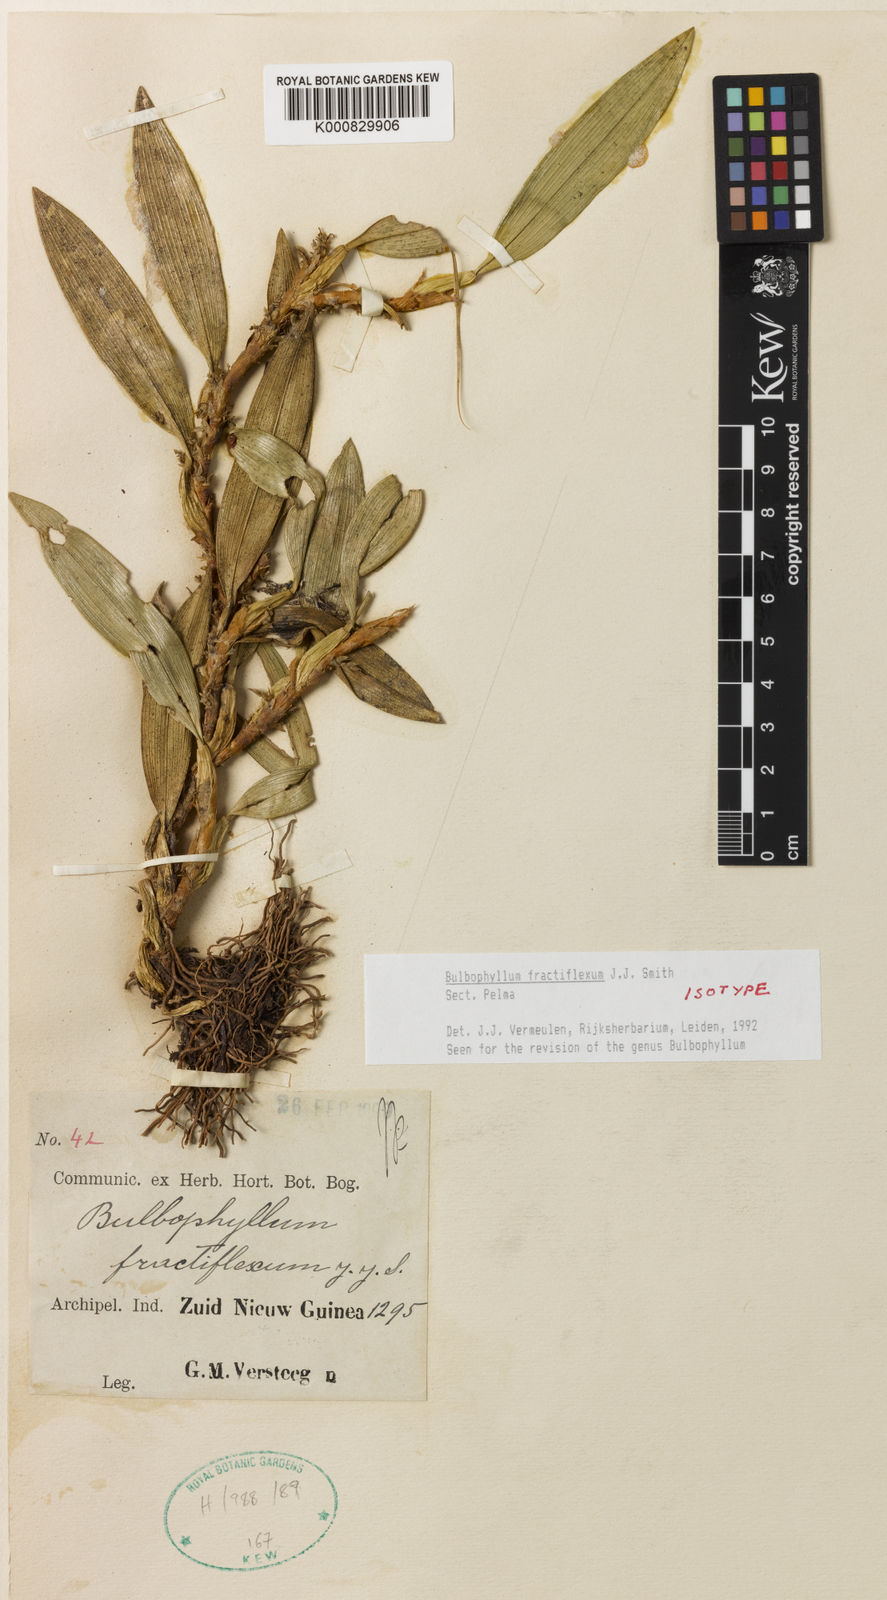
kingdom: Plantae
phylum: Tracheophyta
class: Liliopsida
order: Asparagales
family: Orchidaceae
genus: Bulbophyllum
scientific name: Bulbophyllum
